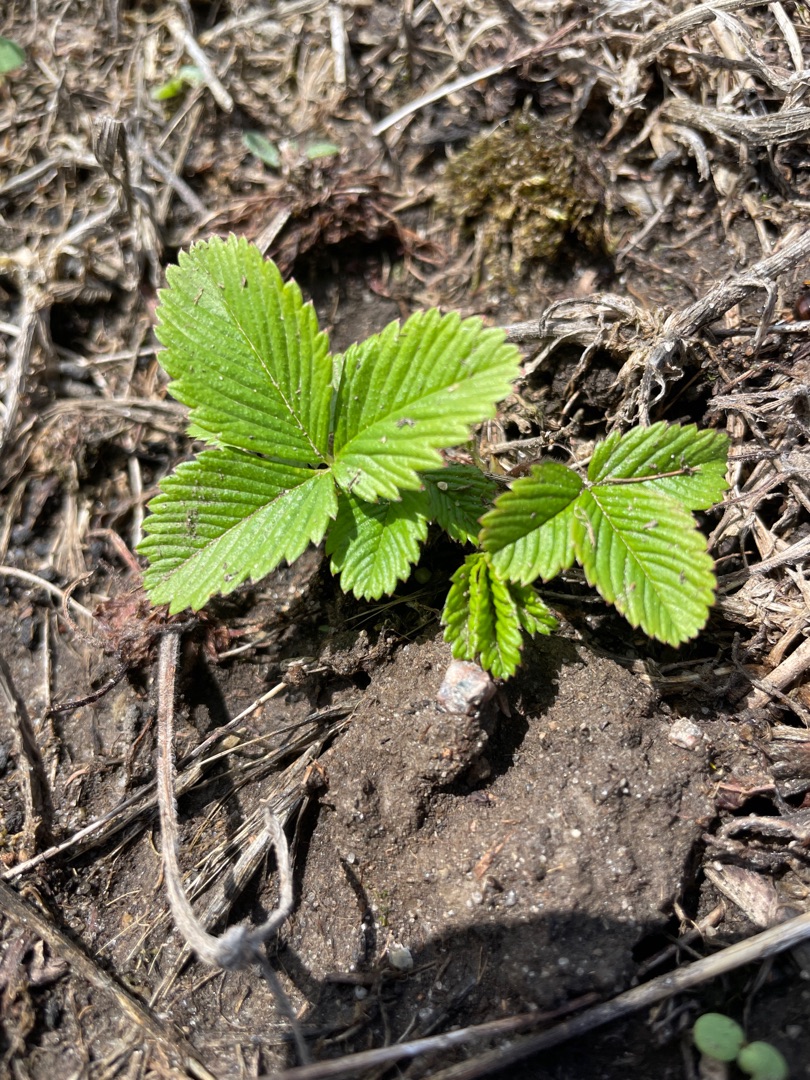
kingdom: Plantae
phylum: Tracheophyta
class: Magnoliopsida
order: Rosales
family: Rosaceae
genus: Fragaria
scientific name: Fragaria vesca
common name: Skov-jordbær
